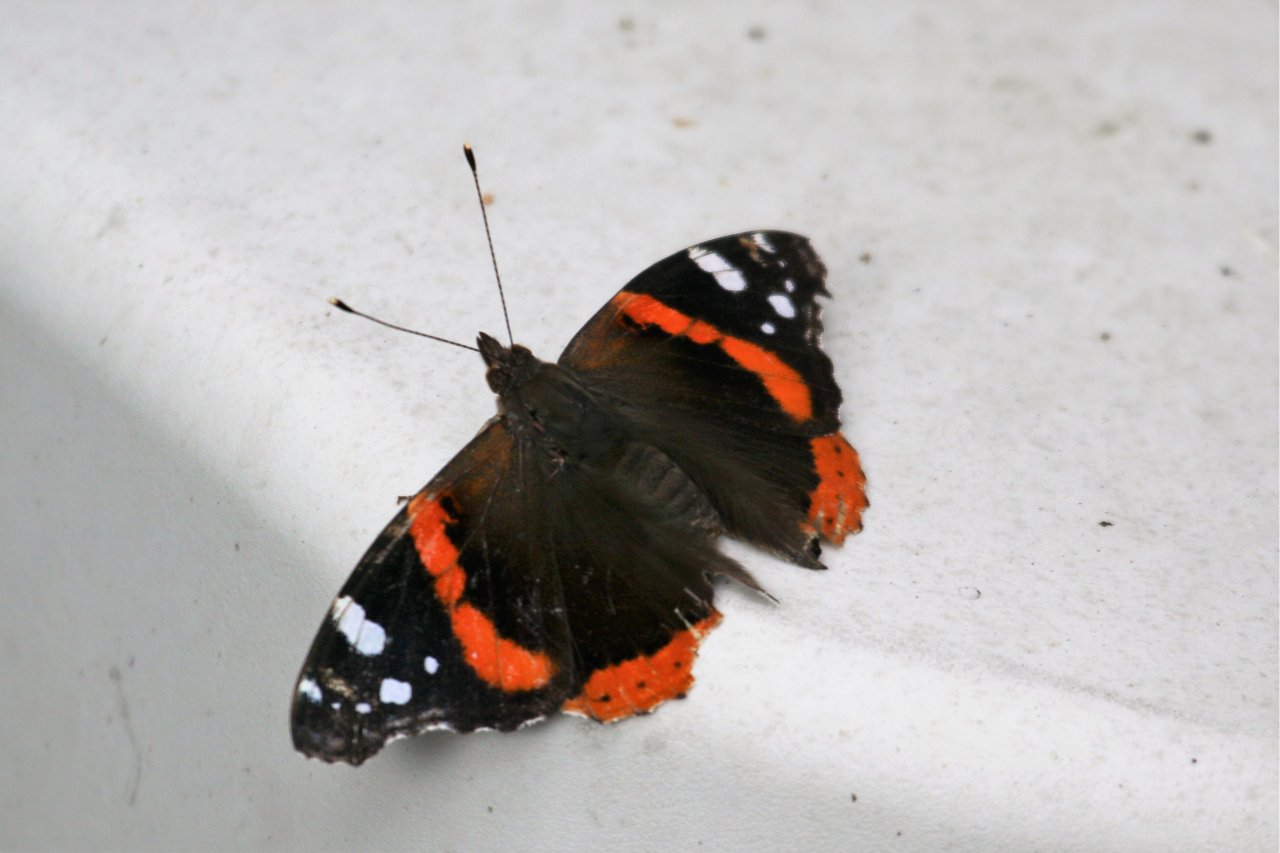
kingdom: Animalia
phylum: Arthropoda
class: Insecta
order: Lepidoptera
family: Nymphalidae
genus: Vanessa
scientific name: Vanessa atalanta
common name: Red Admiral
